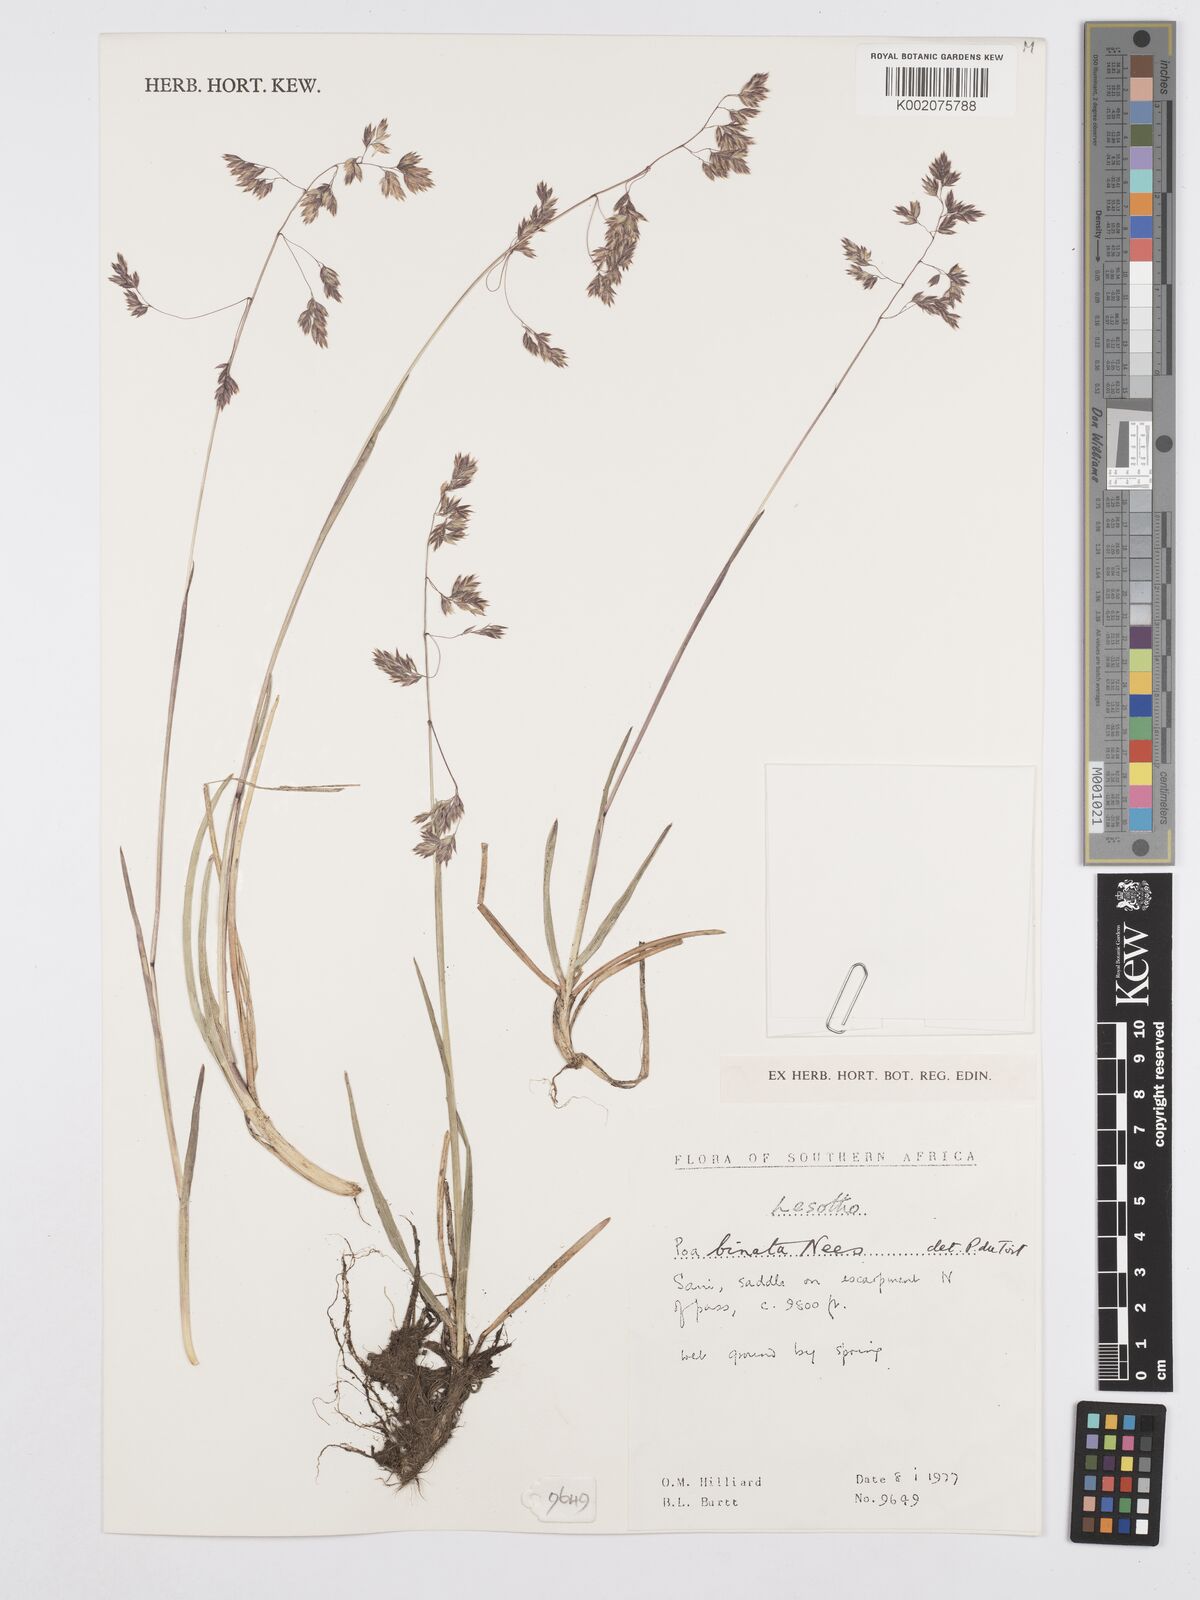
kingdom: Plantae
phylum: Tracheophyta
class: Liliopsida
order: Poales
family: Poaceae
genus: Poa
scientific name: Poa binata
